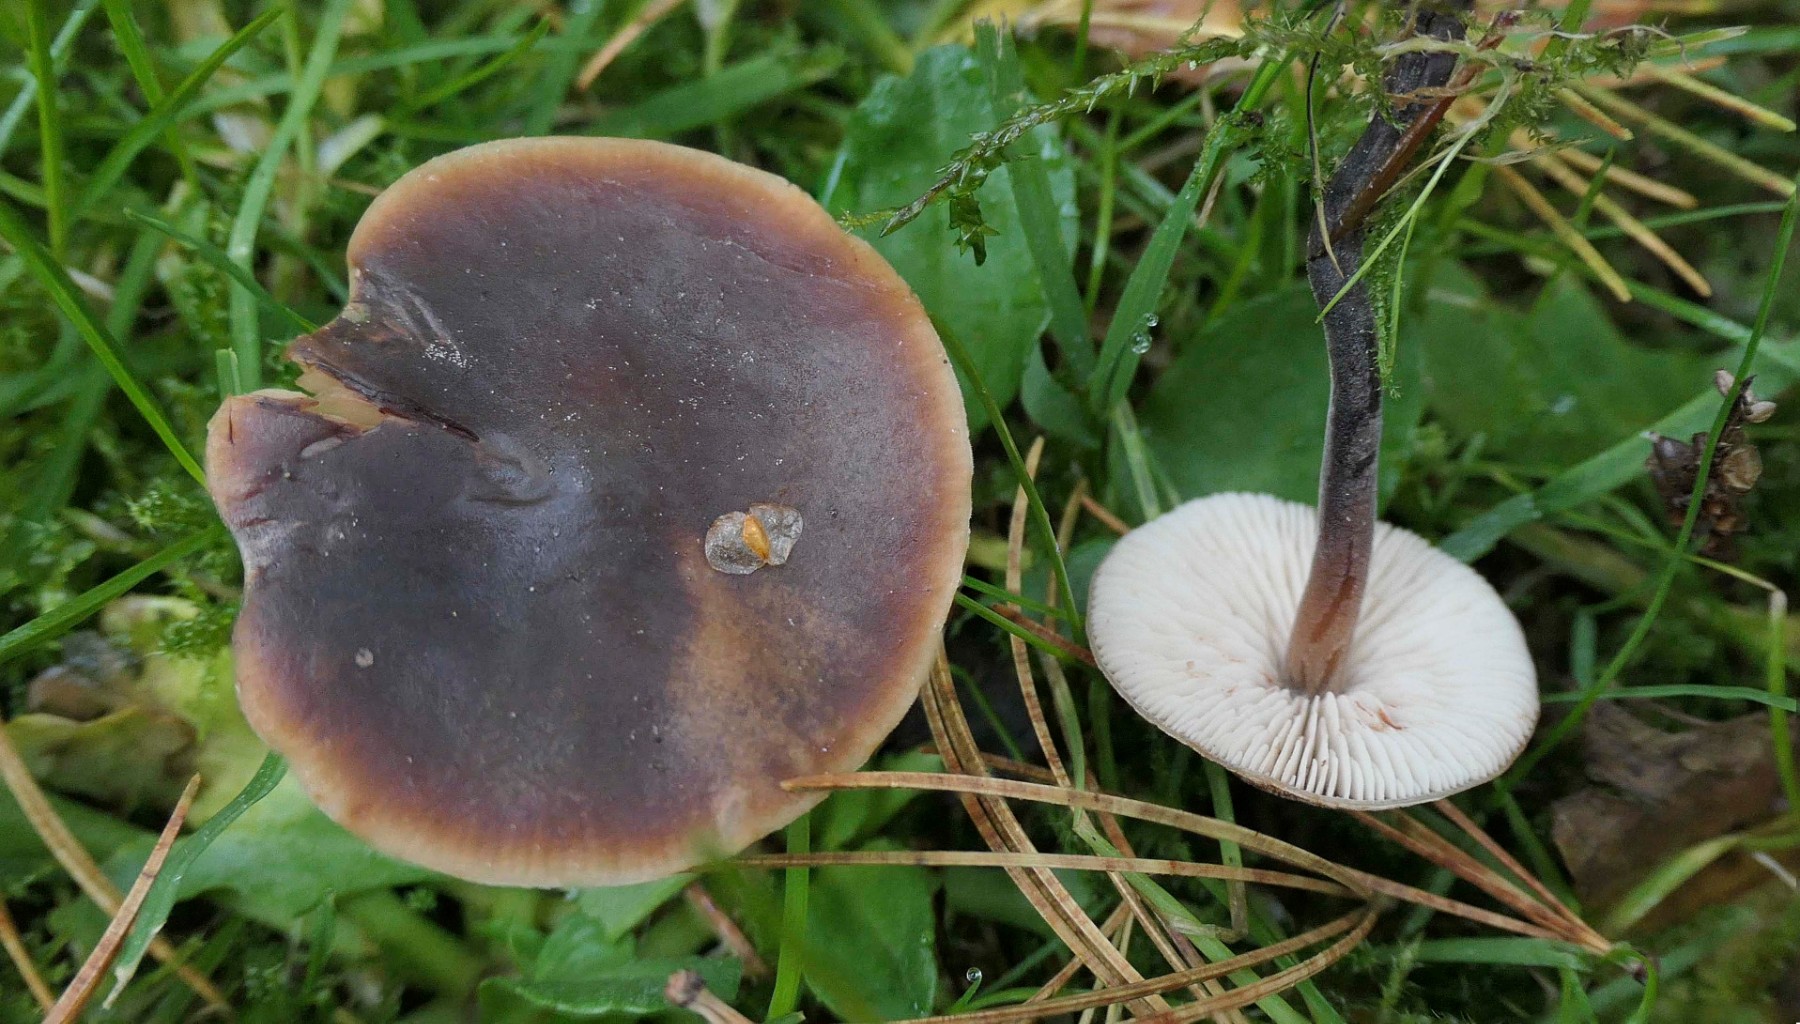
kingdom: Fungi
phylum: Basidiomycota
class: Agaricomycetes
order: Agaricales
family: Macrocystidiaceae
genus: Macrocystidia
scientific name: Macrocystidia cucumis
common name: agurkehat
